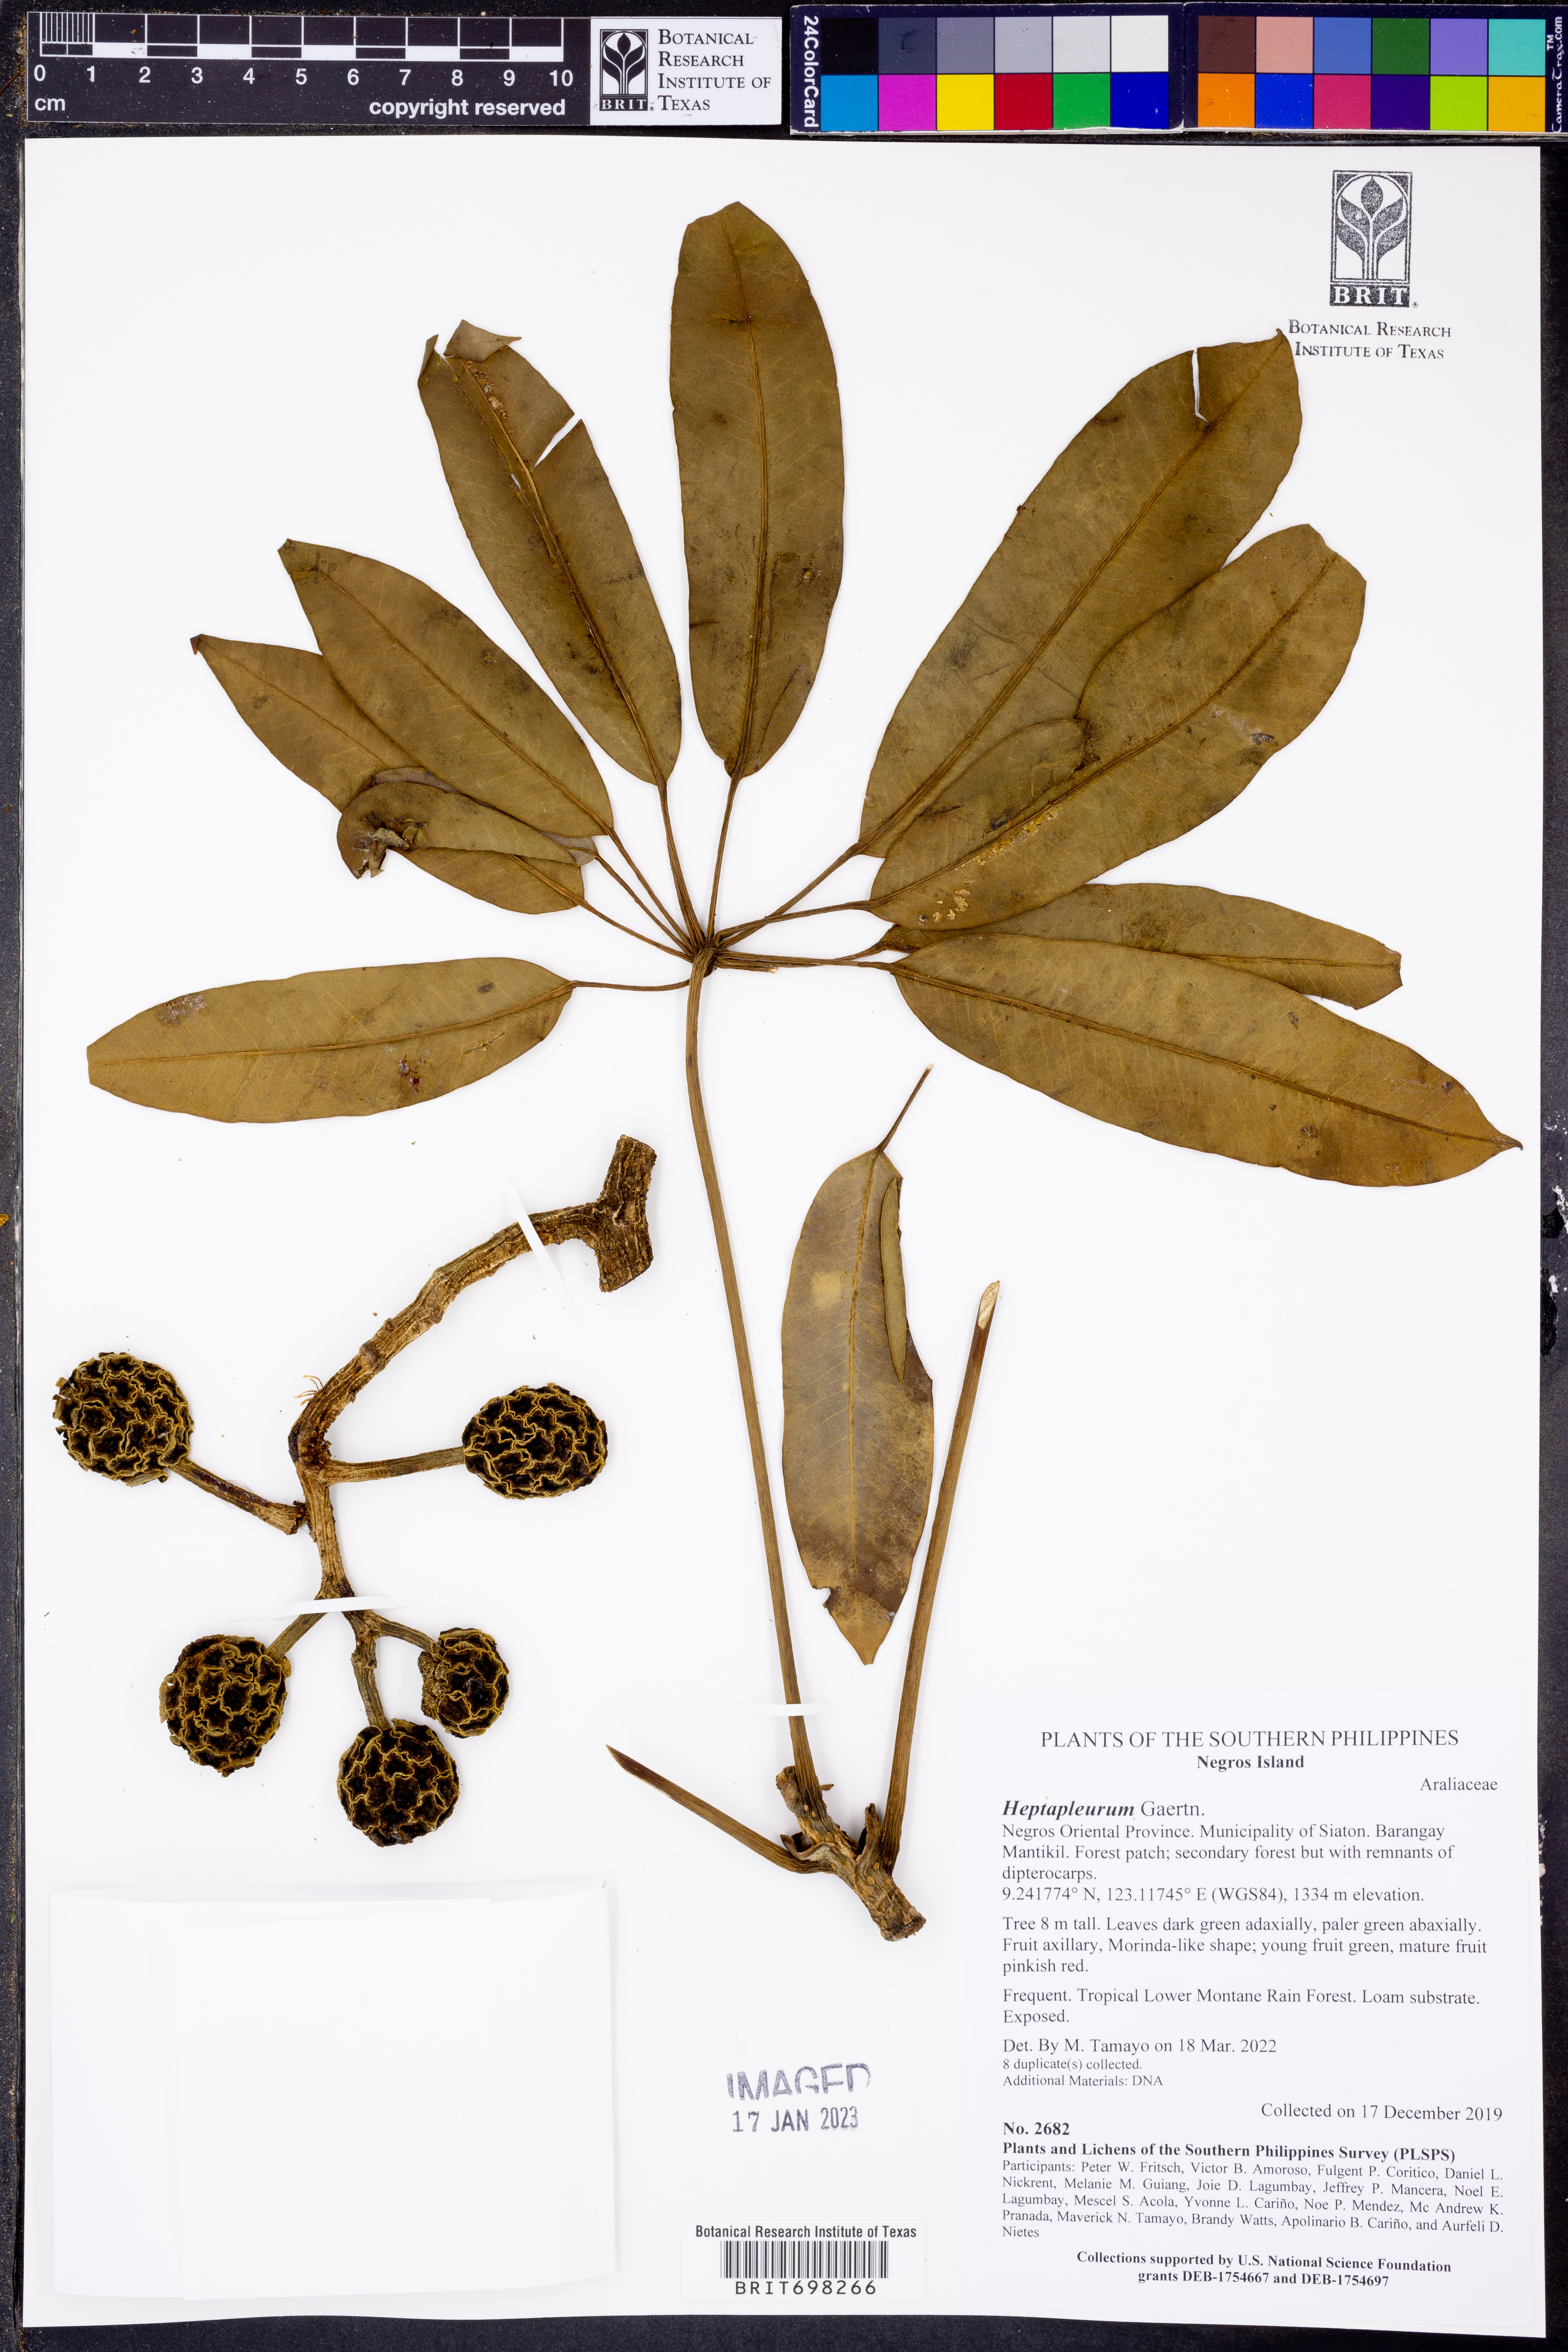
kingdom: Plantae
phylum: Tracheophyta
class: Magnoliopsida
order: Apiales
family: Araliaceae
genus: Schefflera
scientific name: Schefflera
